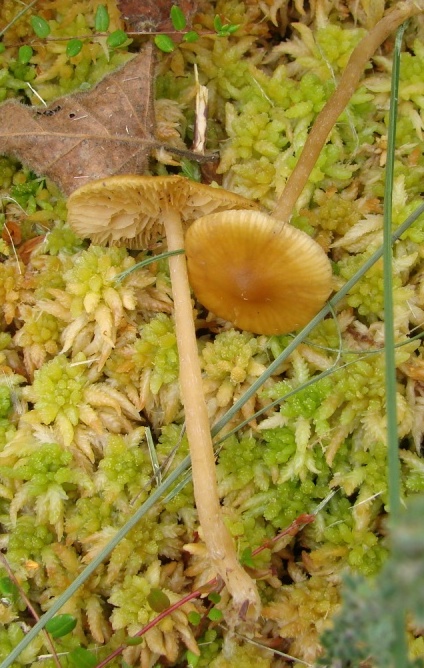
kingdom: Fungi
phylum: Basidiomycota
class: Agaricomycetes
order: Agaricales
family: Hymenogastraceae
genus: Galerina
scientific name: Galerina hybrida
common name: hængesæk-hjelmhat
